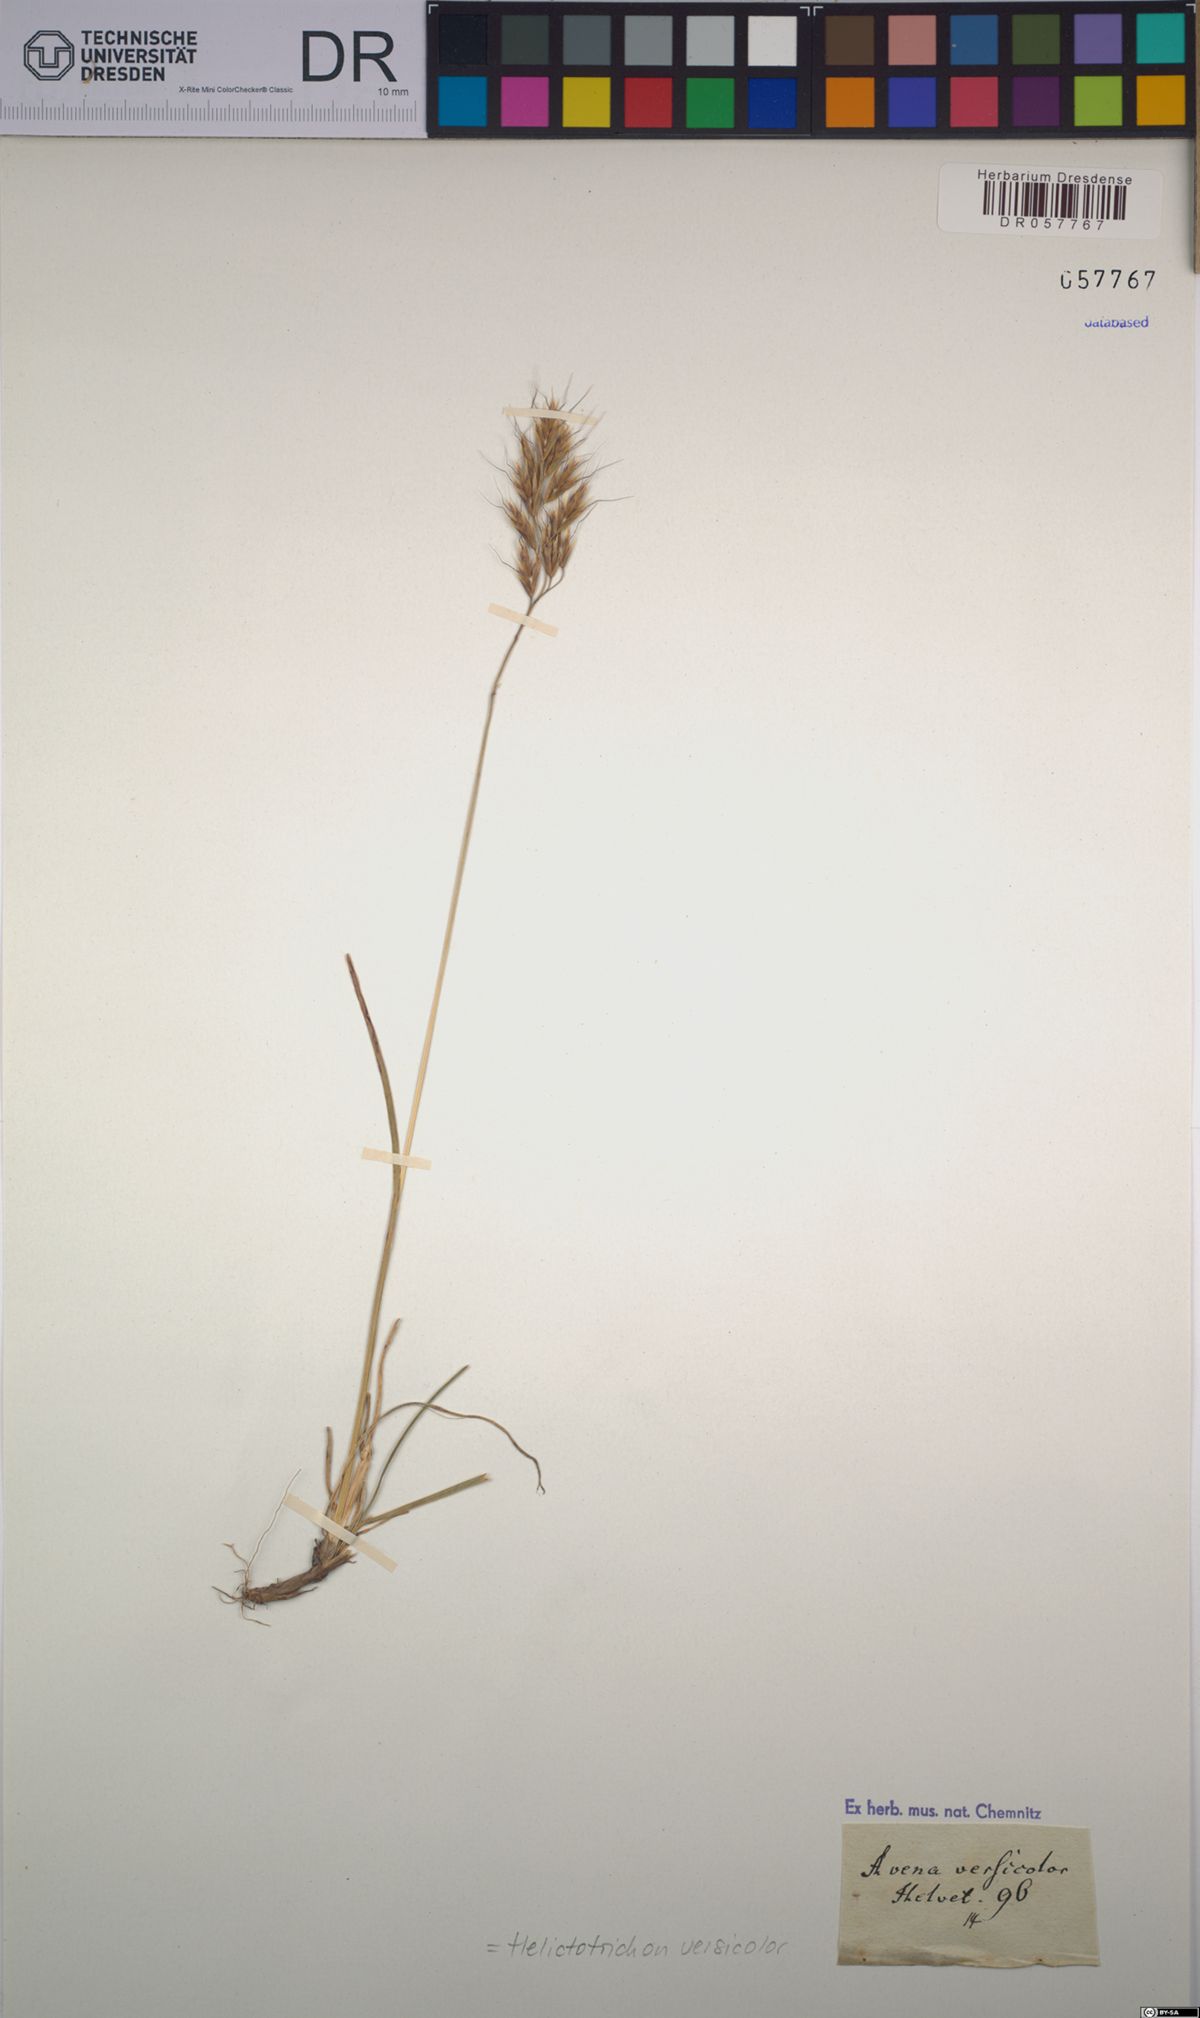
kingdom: Plantae
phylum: Tracheophyta
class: Liliopsida
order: Poales
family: Poaceae
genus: Helictochloa
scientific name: Helictochloa versicolor
